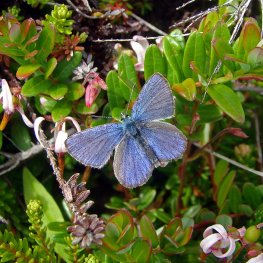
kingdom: Animalia
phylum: Arthropoda
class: Insecta
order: Lepidoptera
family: Lycaenidae
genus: Lycaeides
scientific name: Lycaeides idas
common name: Northern Blue
